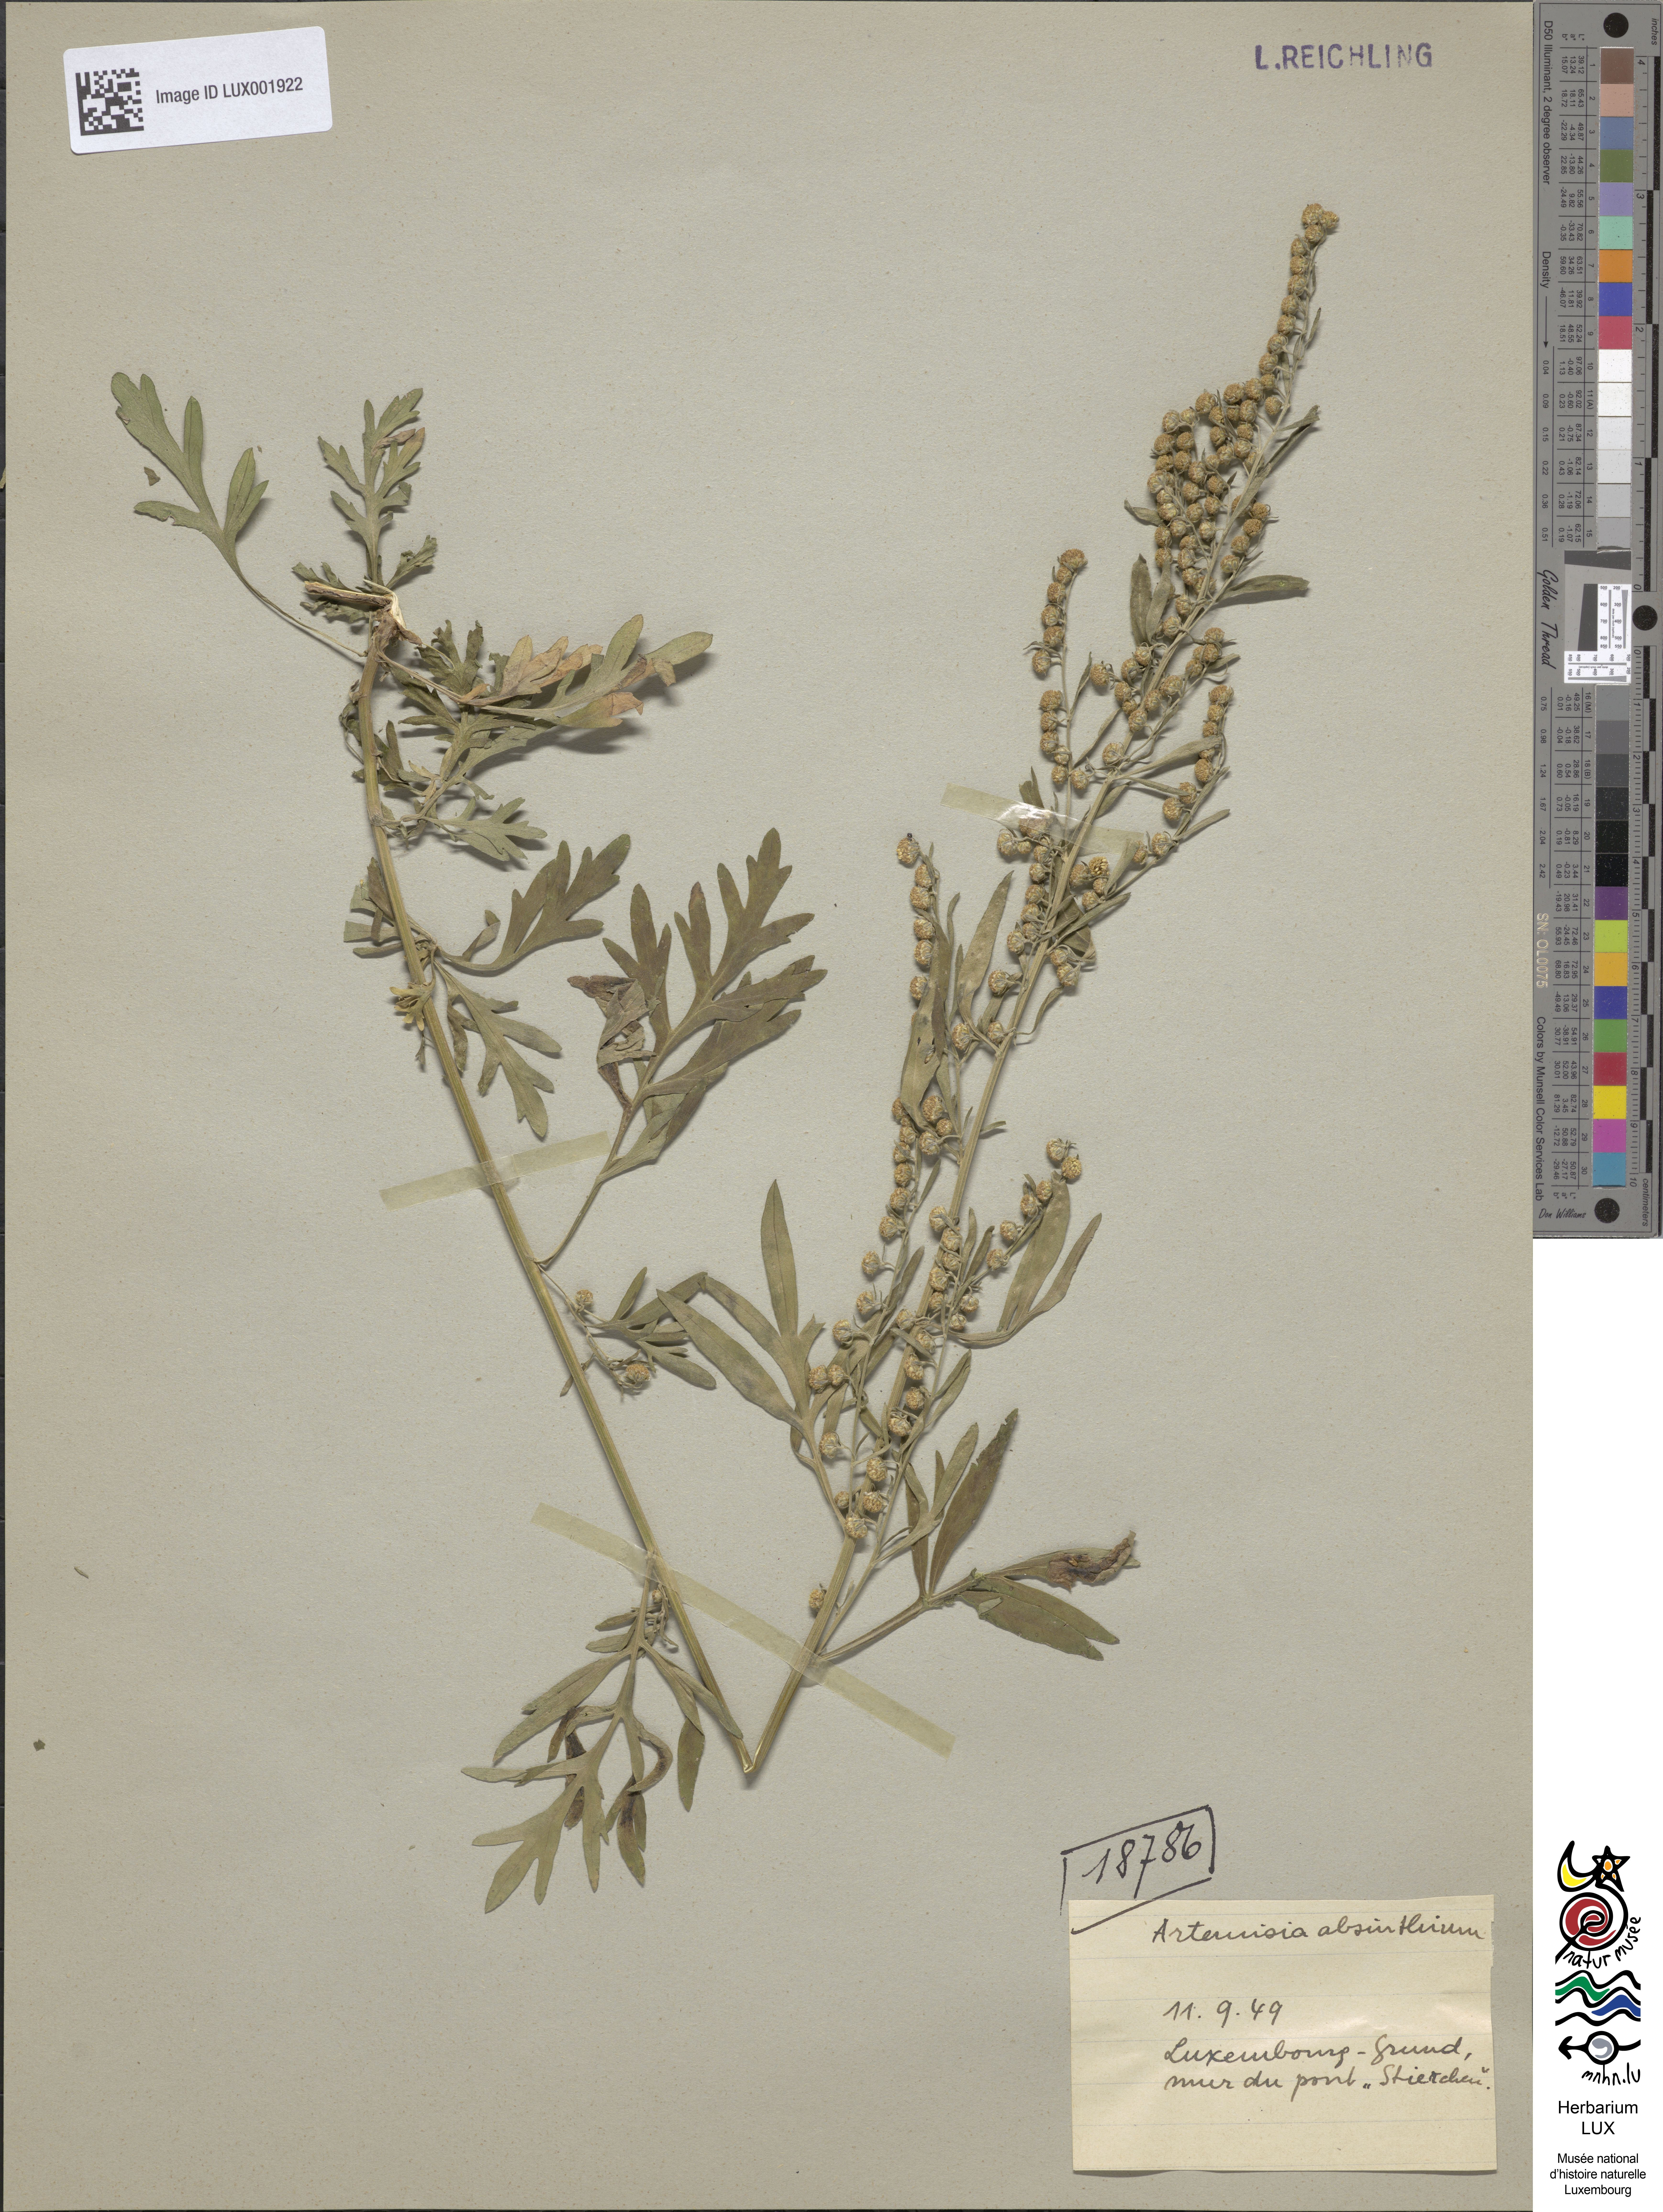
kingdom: Plantae
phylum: Tracheophyta
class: Magnoliopsida
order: Asterales
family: Asteraceae
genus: Artemisia
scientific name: Artemisia absinthium
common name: Wormwood
